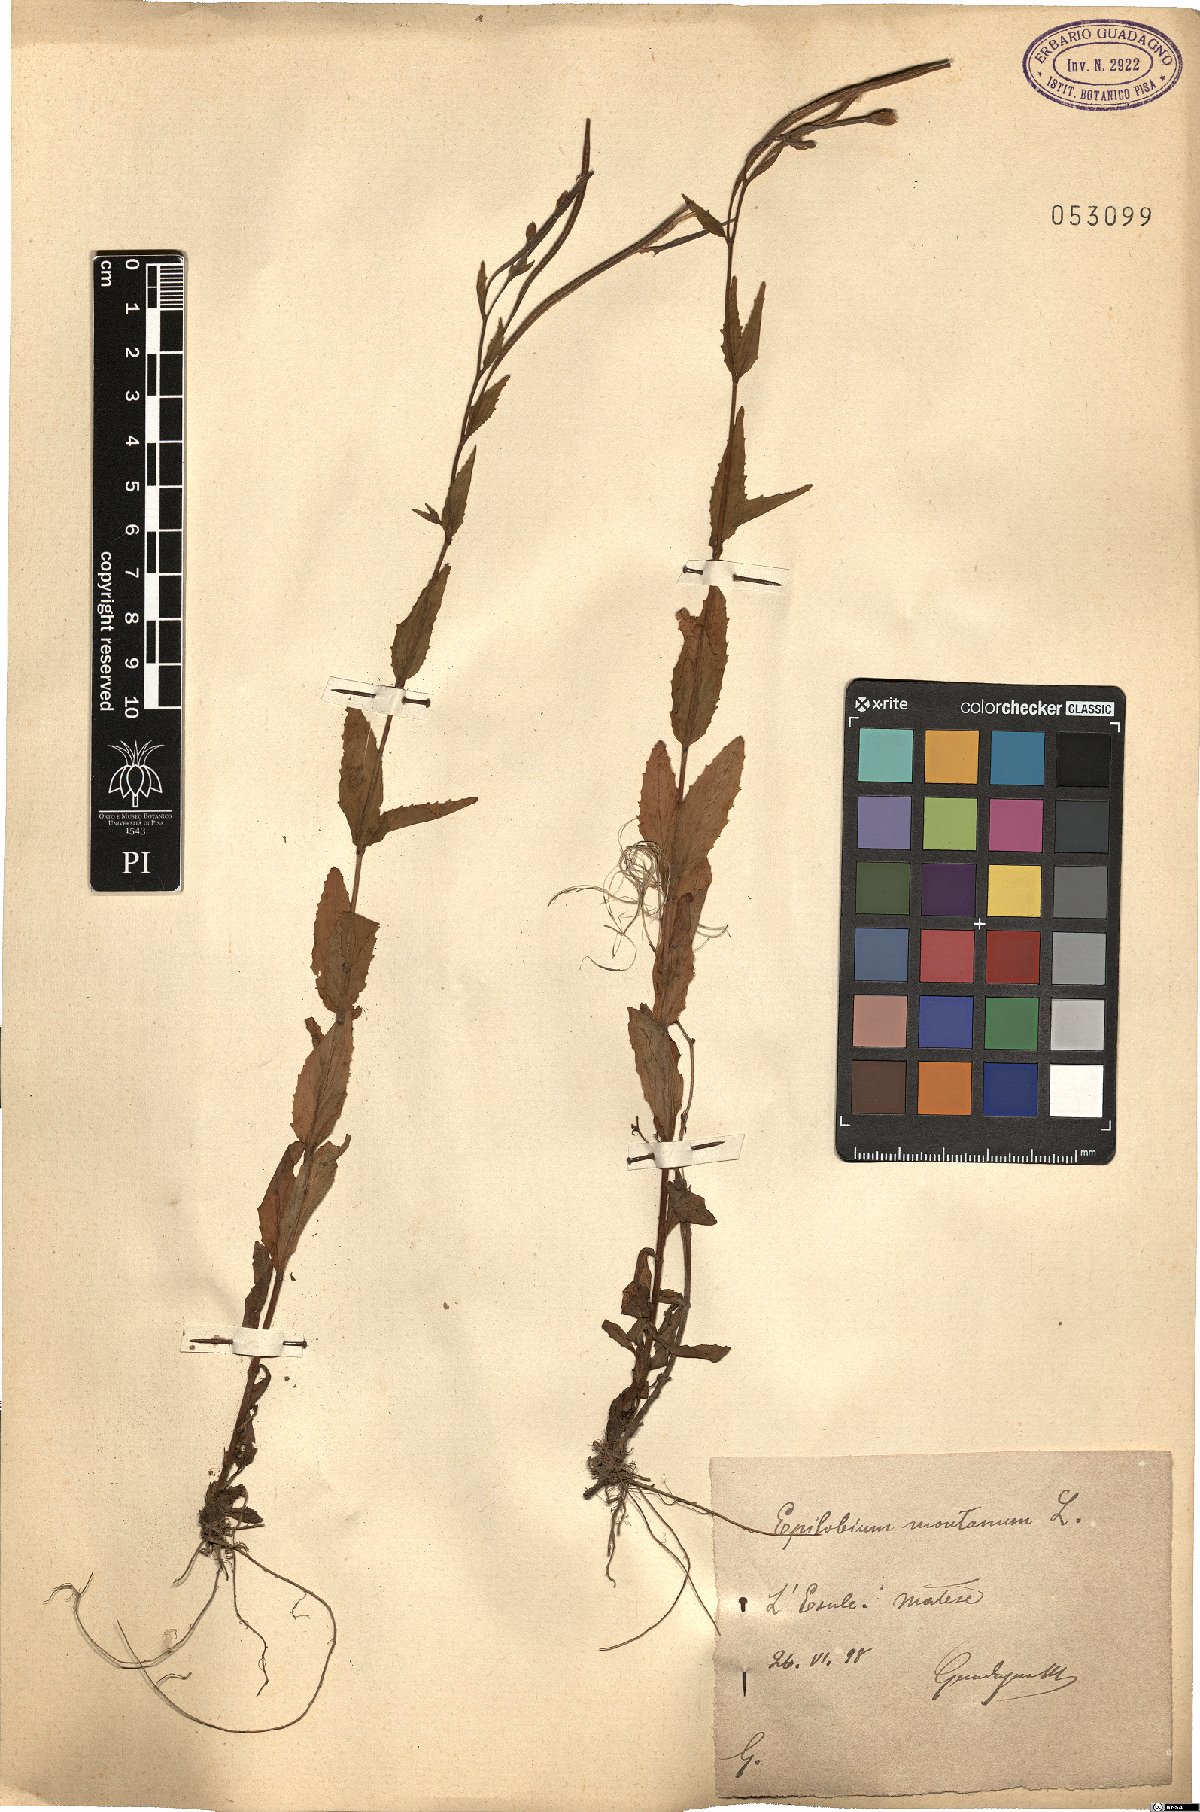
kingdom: Plantae
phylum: Tracheophyta
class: Magnoliopsida
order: Myrtales
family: Onagraceae
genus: Epilobium
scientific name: Epilobium montanum
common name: Broad-leaved willowherb
